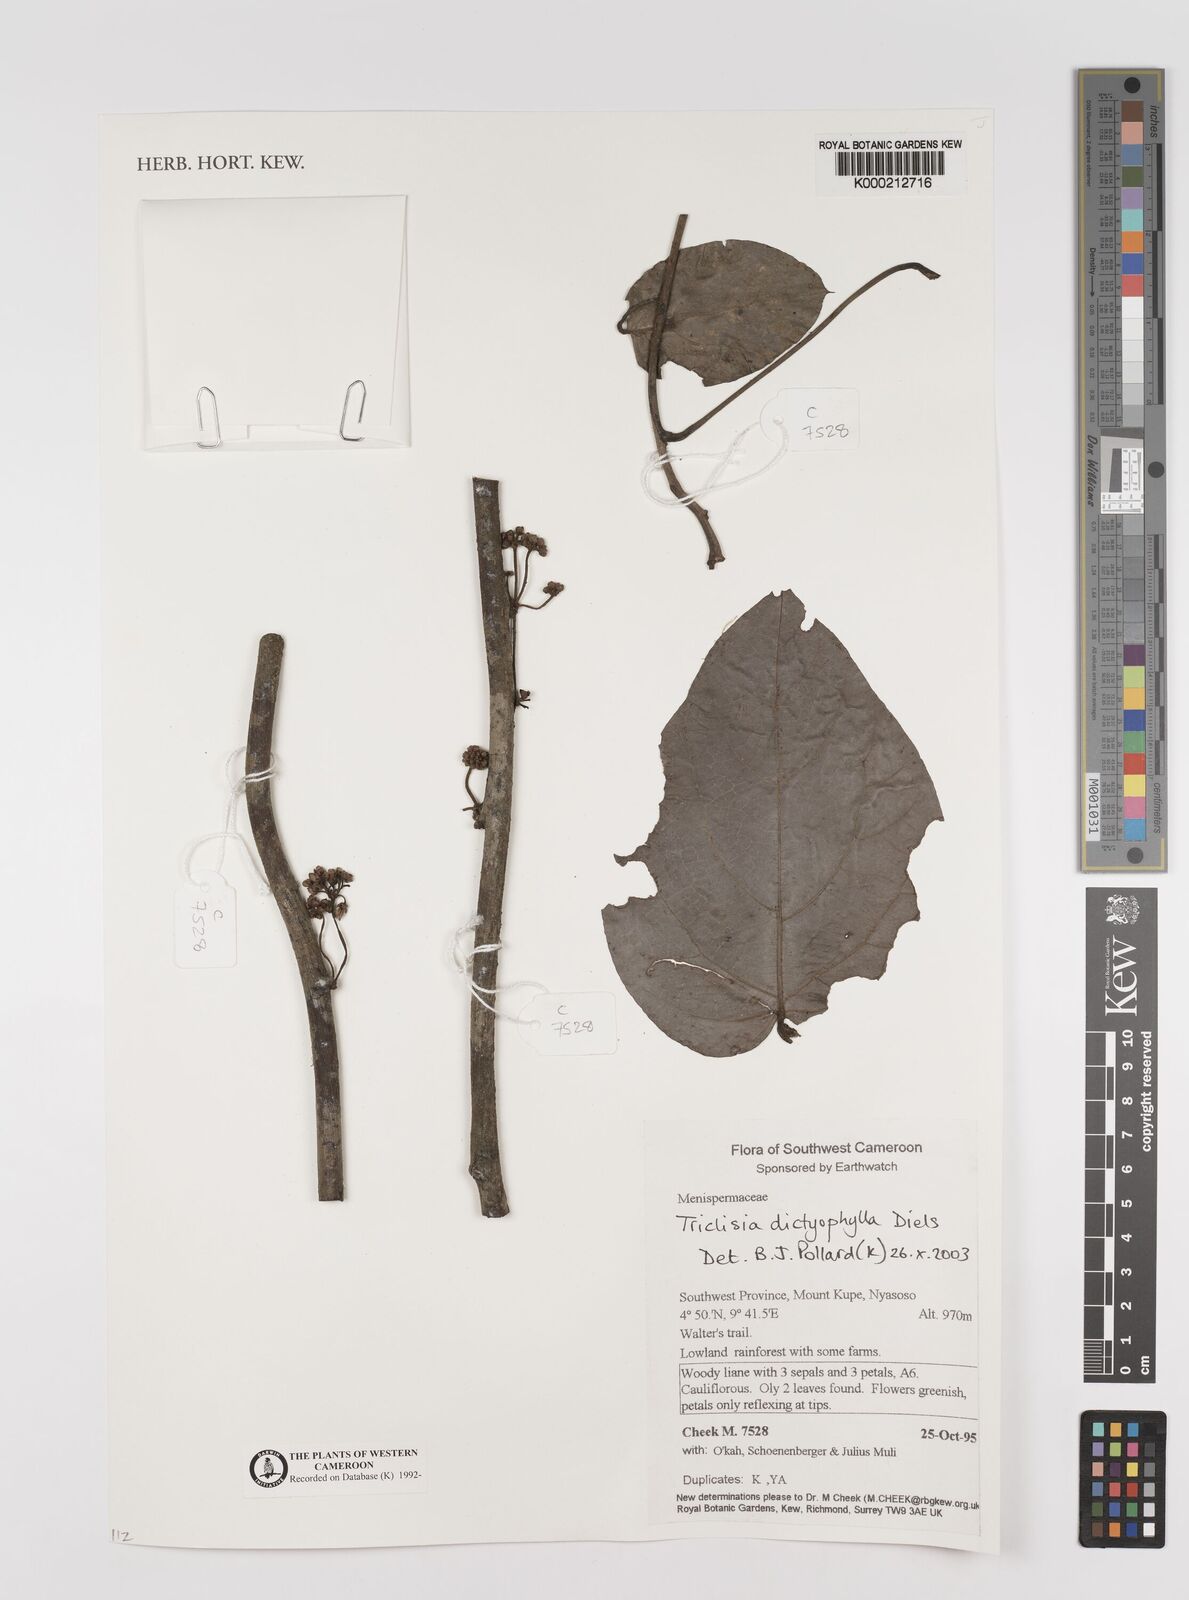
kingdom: Plantae
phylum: Tracheophyta
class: Magnoliopsida
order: Ranunculales
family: Menispermaceae
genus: Triclisia
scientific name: Triclisia dictyophylla
